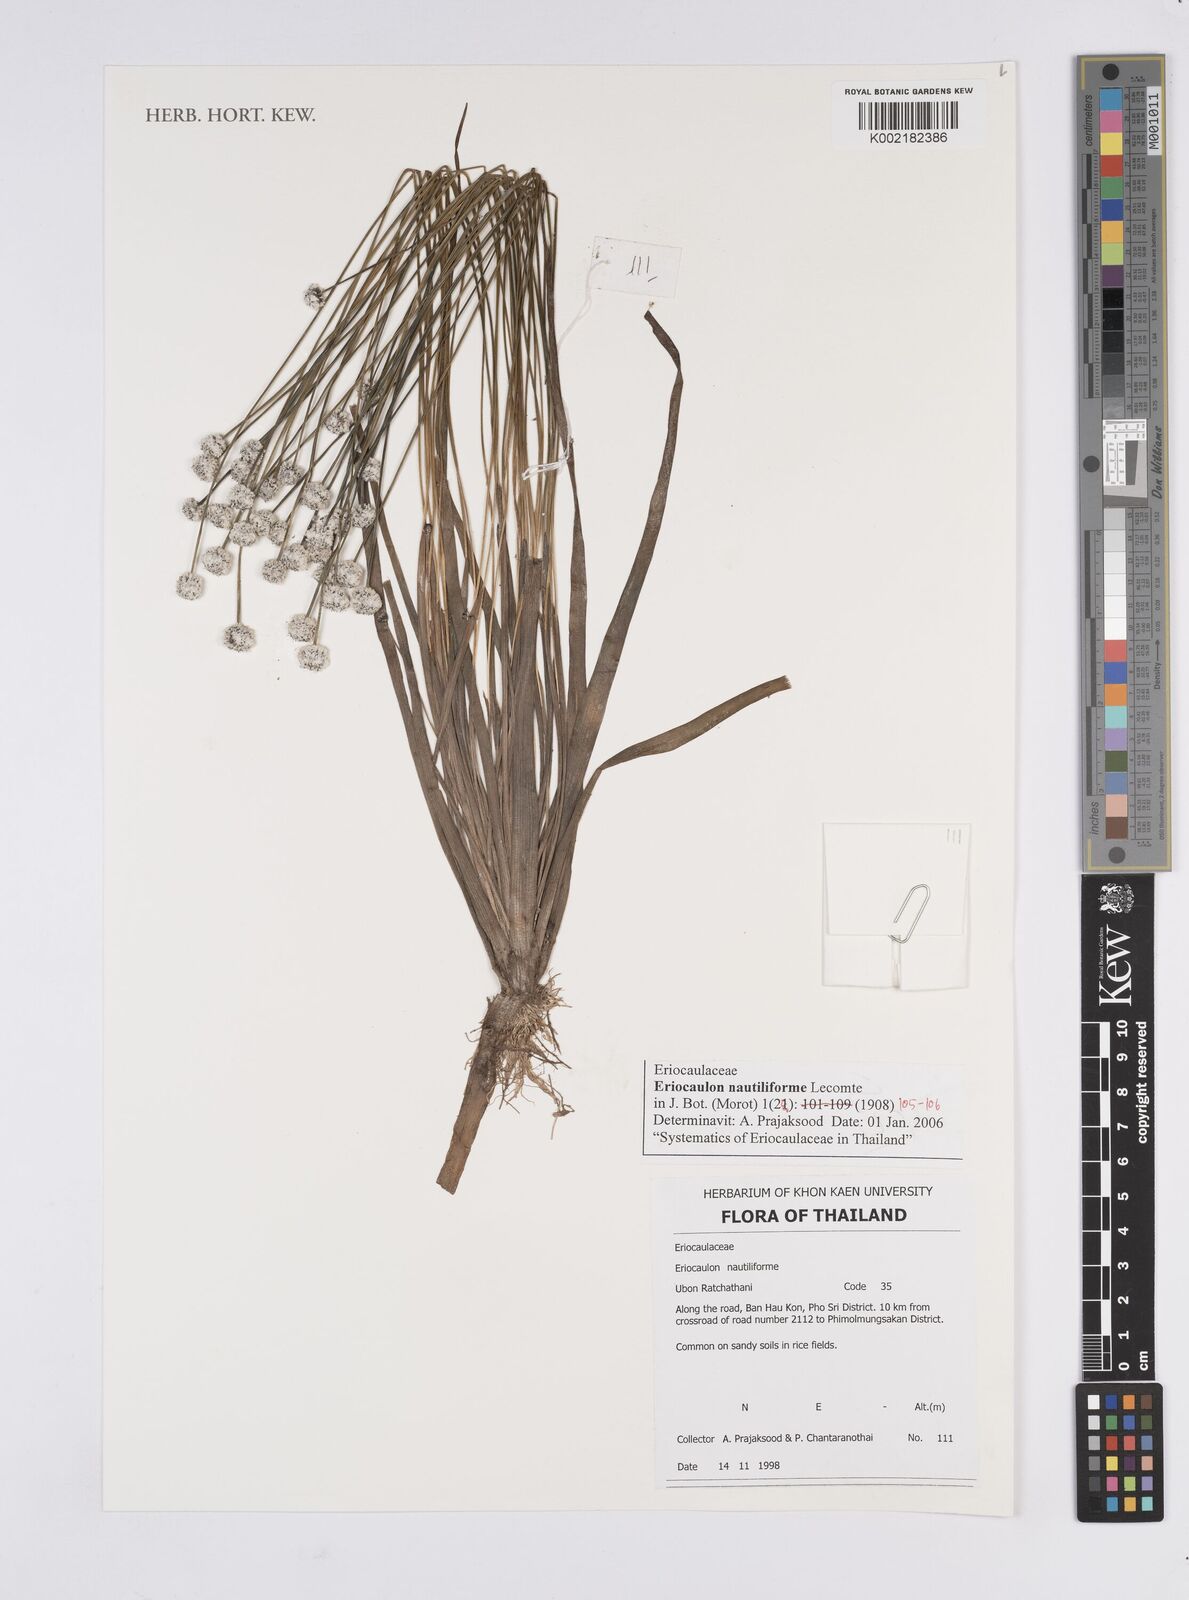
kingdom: Plantae
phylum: Tracheophyta
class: Liliopsida
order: Poales
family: Eriocaulaceae
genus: Eriocaulon
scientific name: Eriocaulon nautiliforme
